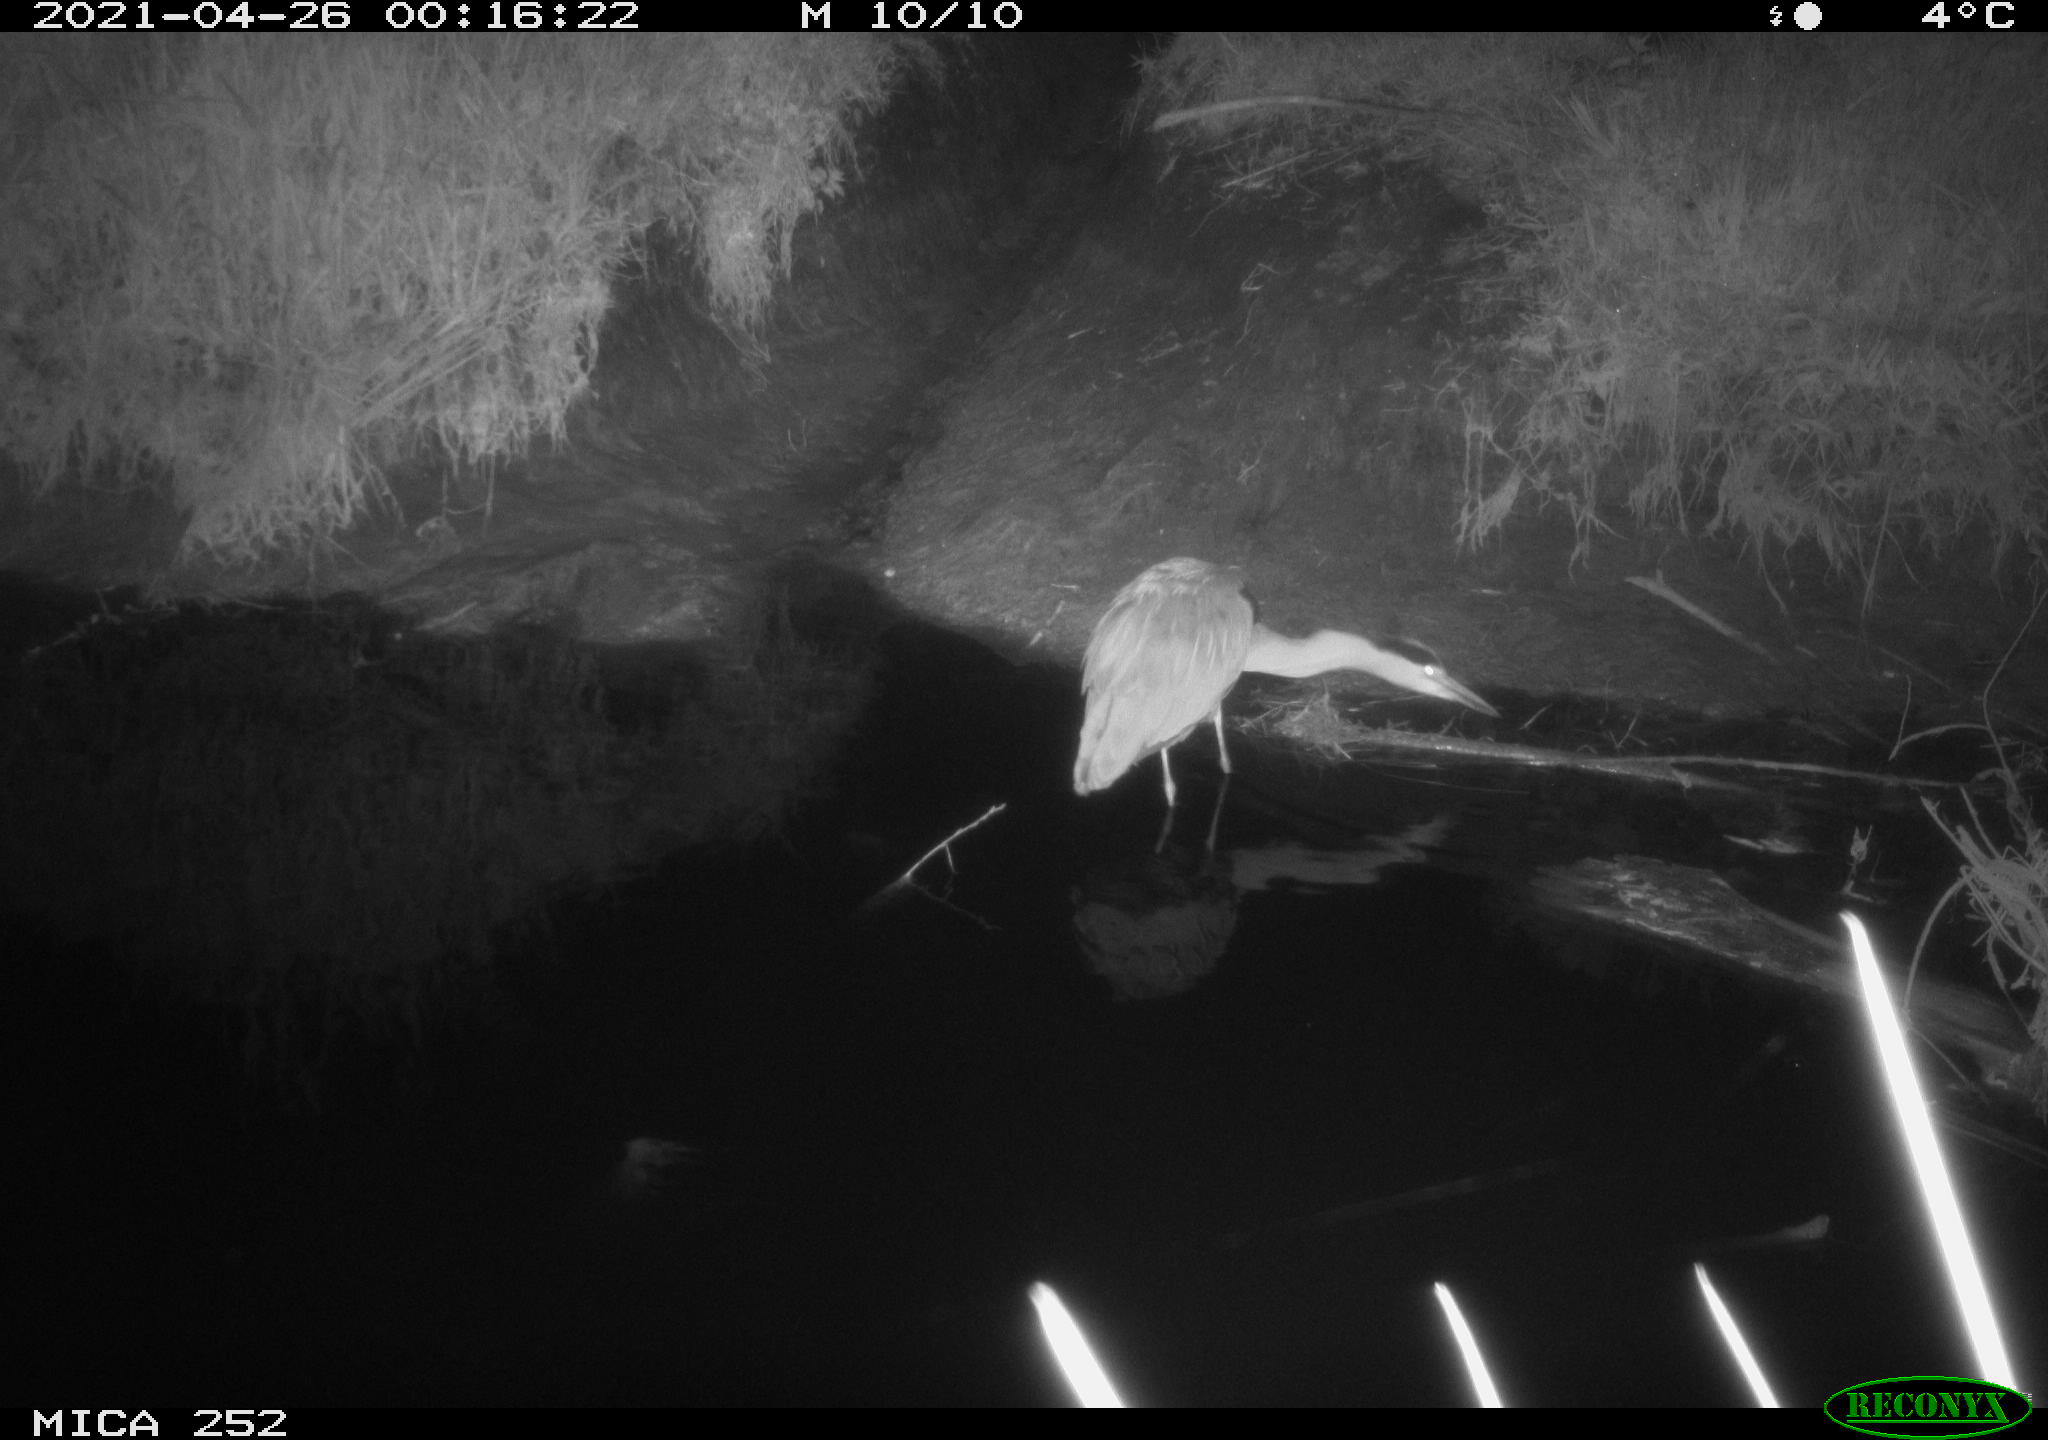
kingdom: Animalia
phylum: Chordata
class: Aves
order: Pelecaniformes
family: Ardeidae
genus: Ardea
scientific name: Ardea
